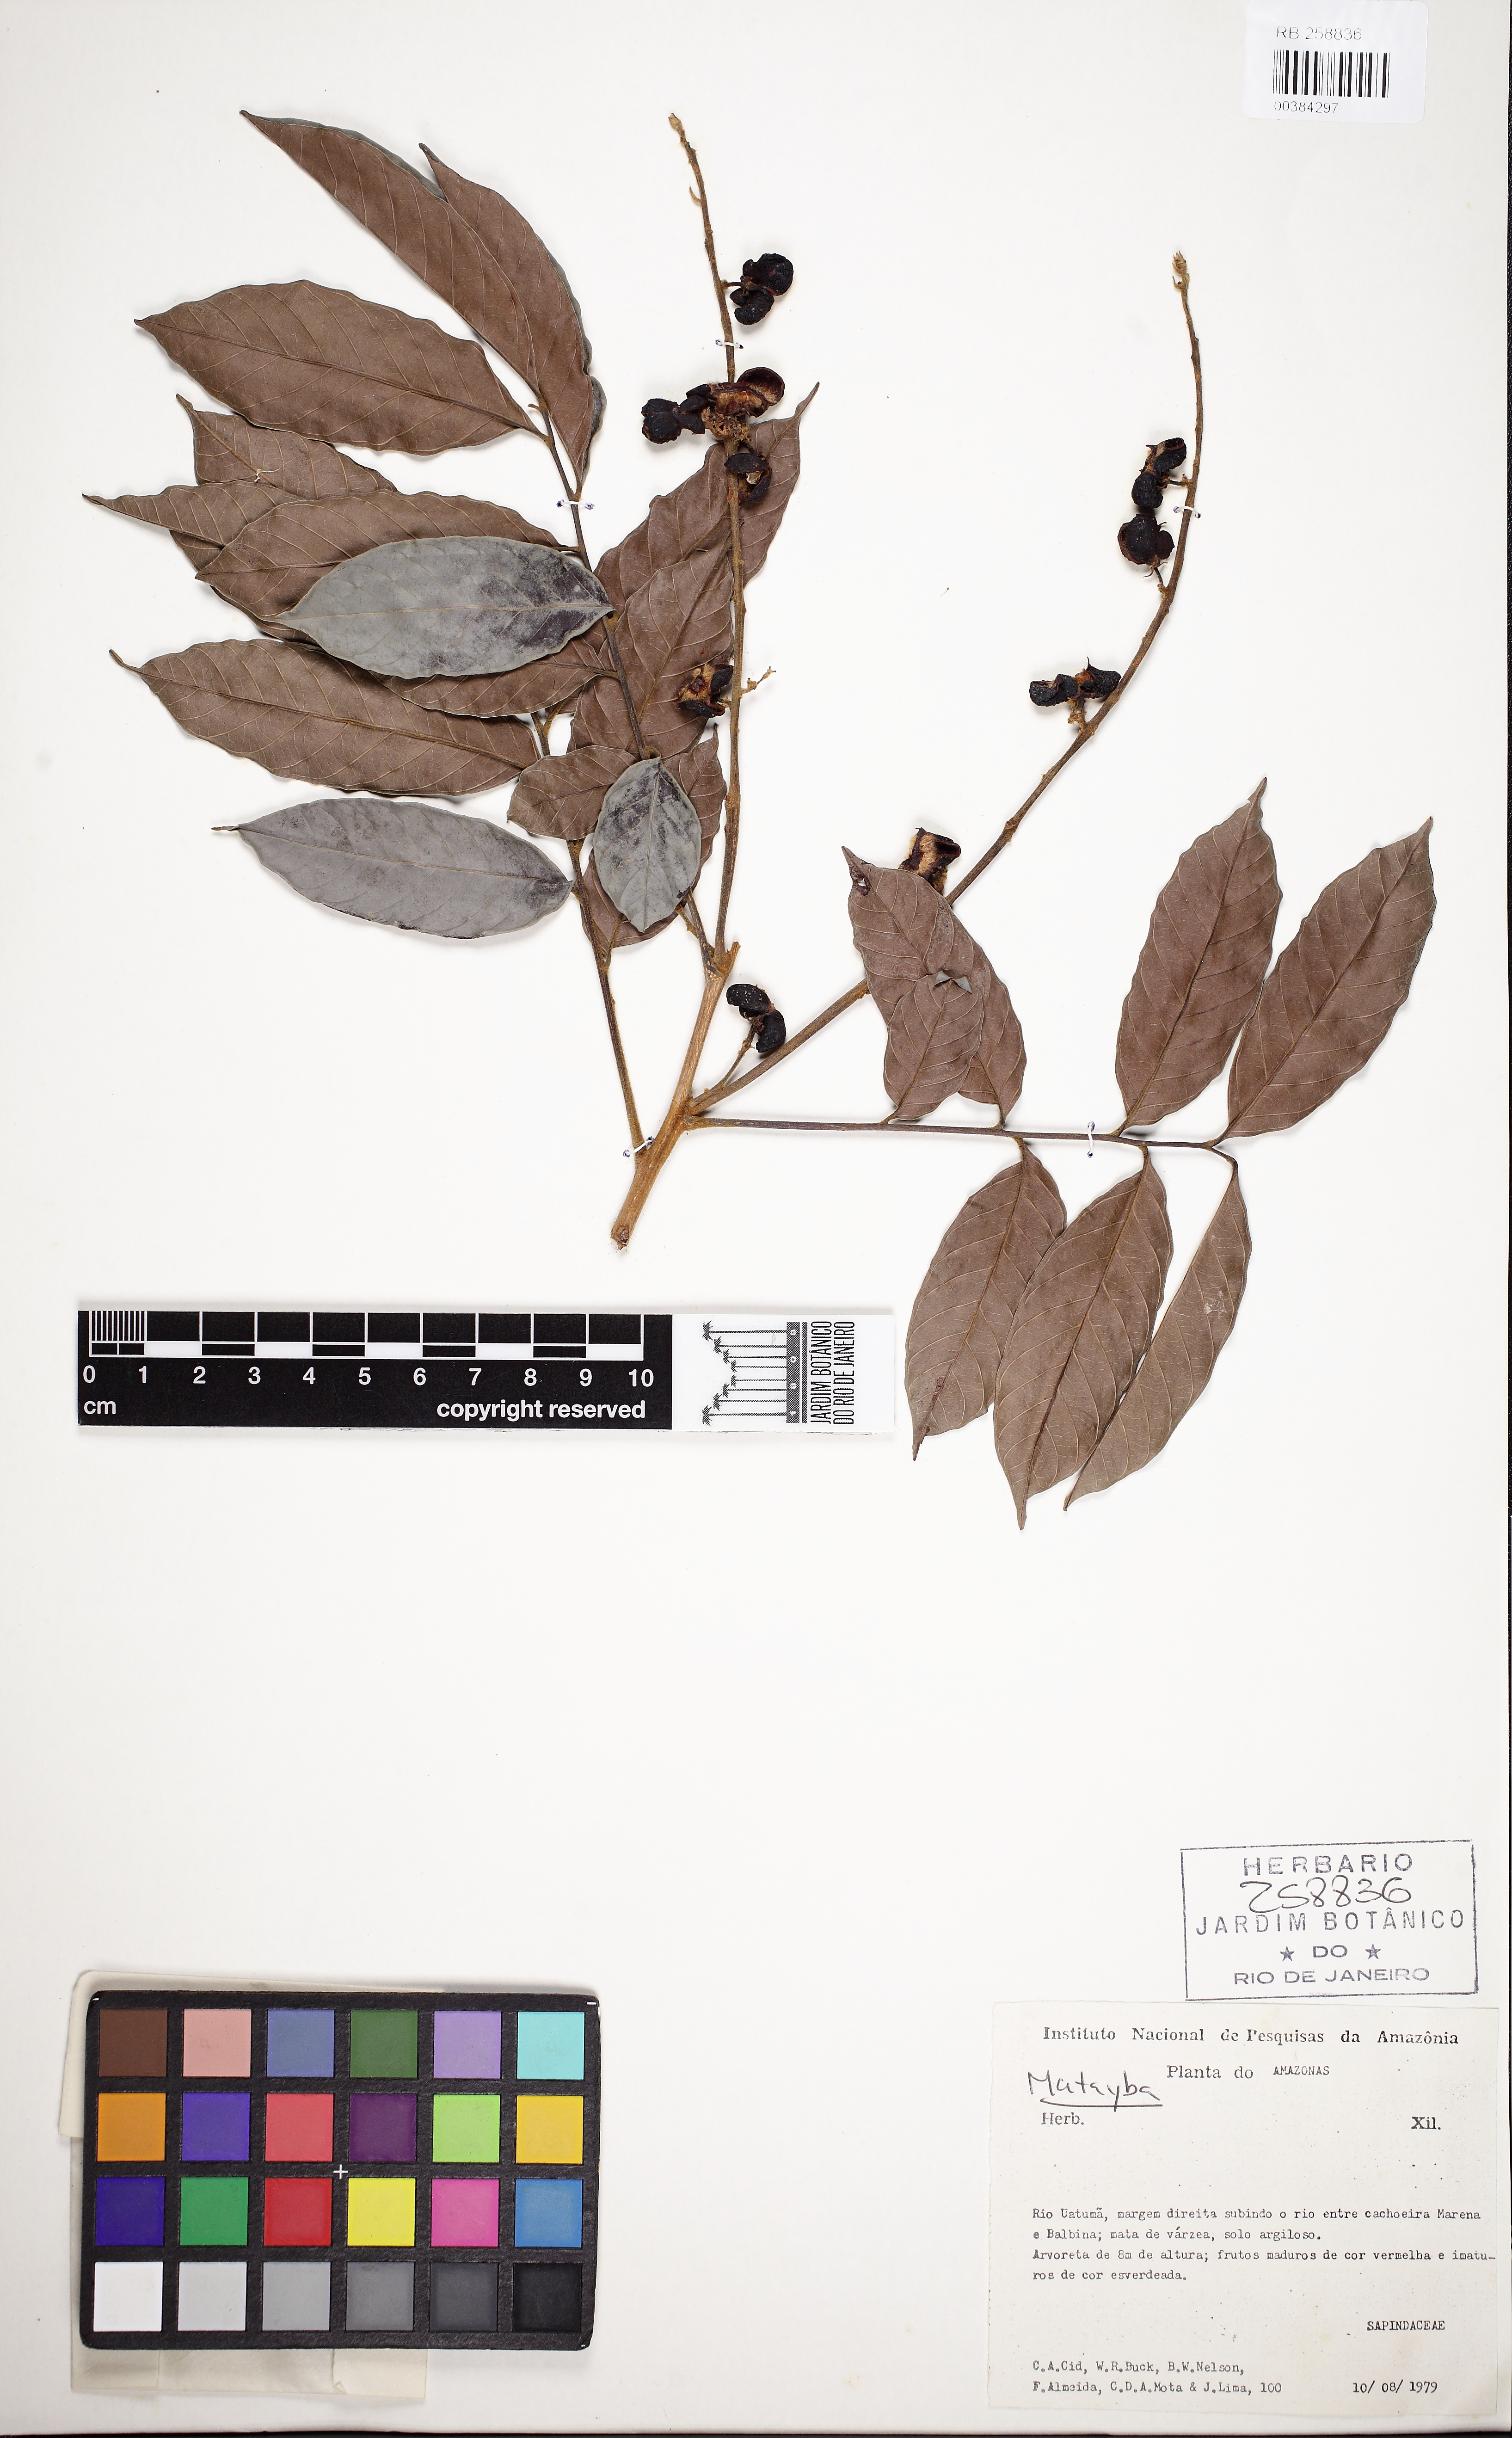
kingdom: Plantae
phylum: Tracheophyta
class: Magnoliopsida
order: Sapindales
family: Sapindaceae
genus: Matayba
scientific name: Matayba
